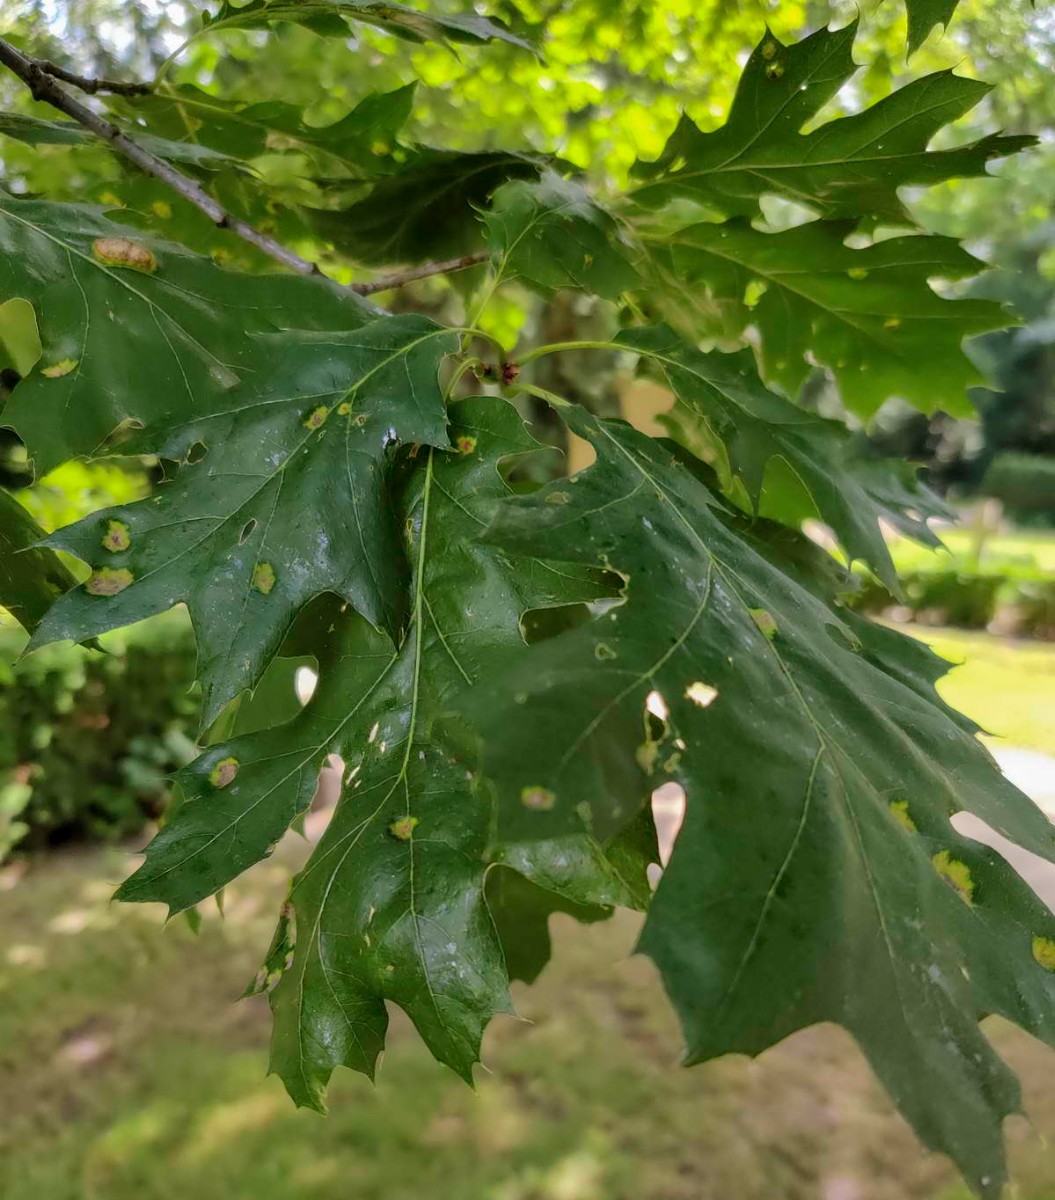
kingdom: Fungi
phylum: Ascomycota
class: Taphrinomycetes
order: Taphrinales
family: Taphrinaceae
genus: Taphrina
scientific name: Taphrina caerulescens
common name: Oak leaf blister
